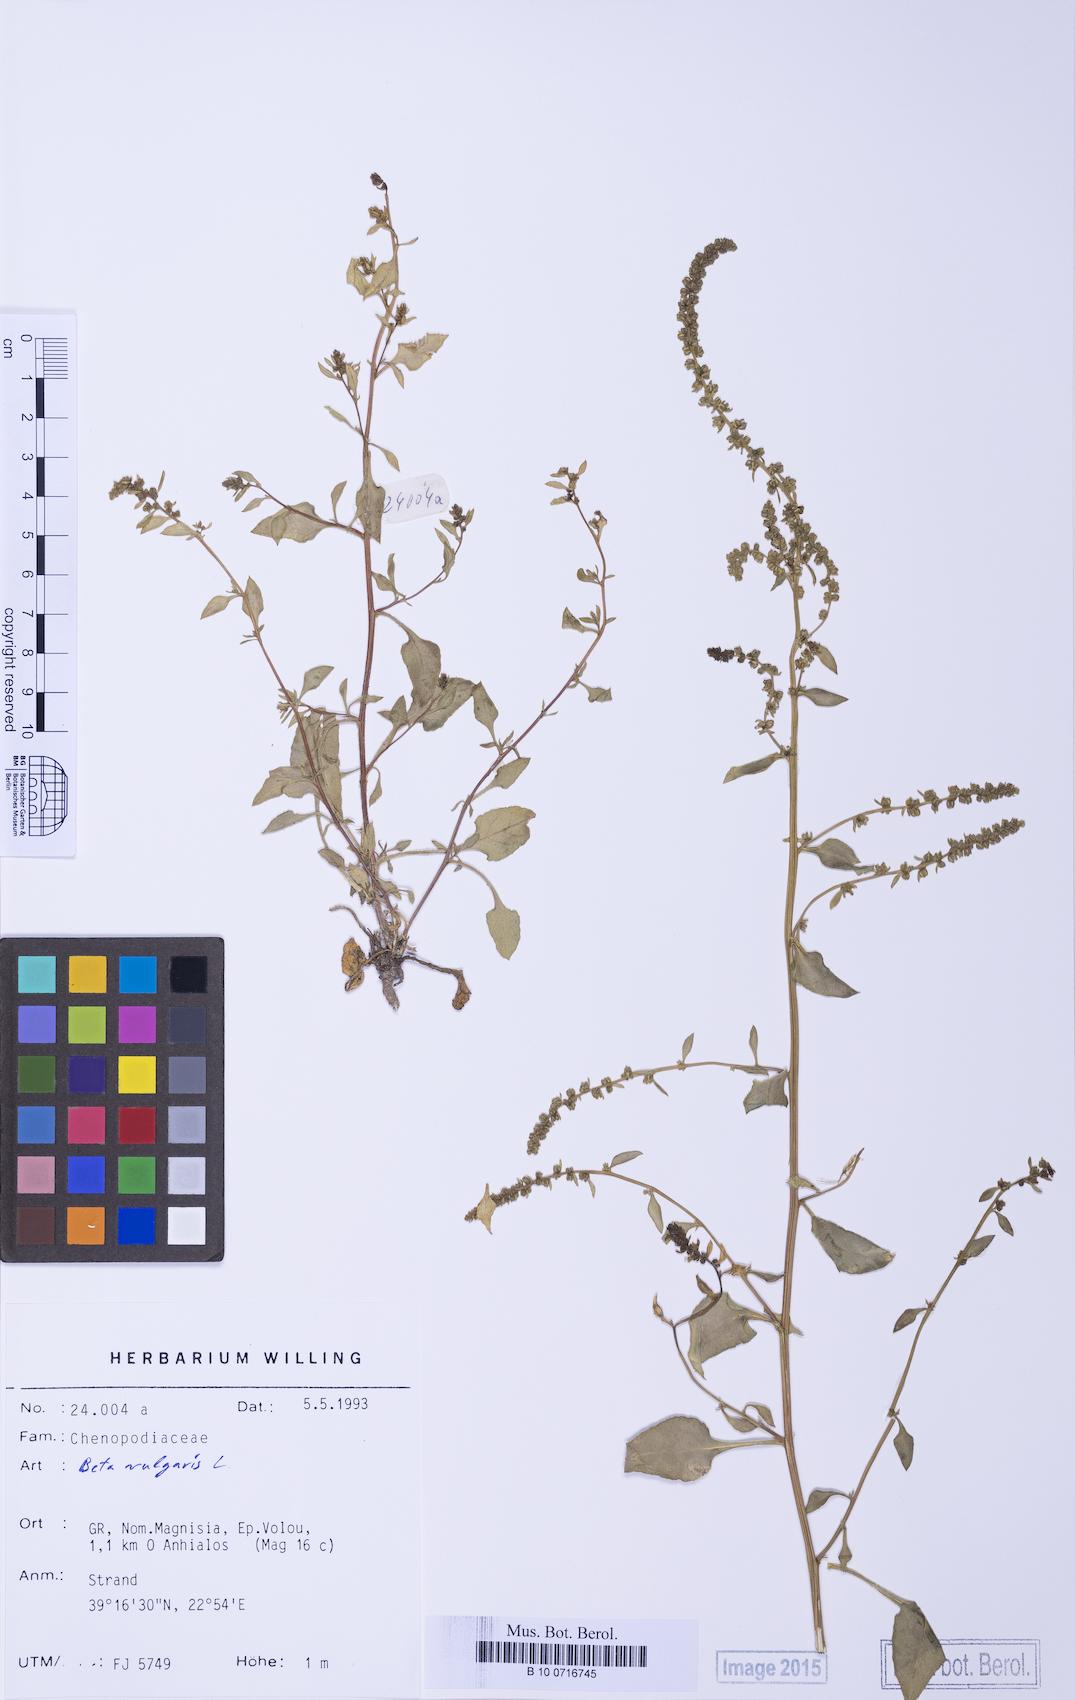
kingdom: Plantae
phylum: Tracheophyta
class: Magnoliopsida
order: Caryophyllales
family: Amaranthaceae
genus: Beta
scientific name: Beta macrocarpa
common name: Beet
